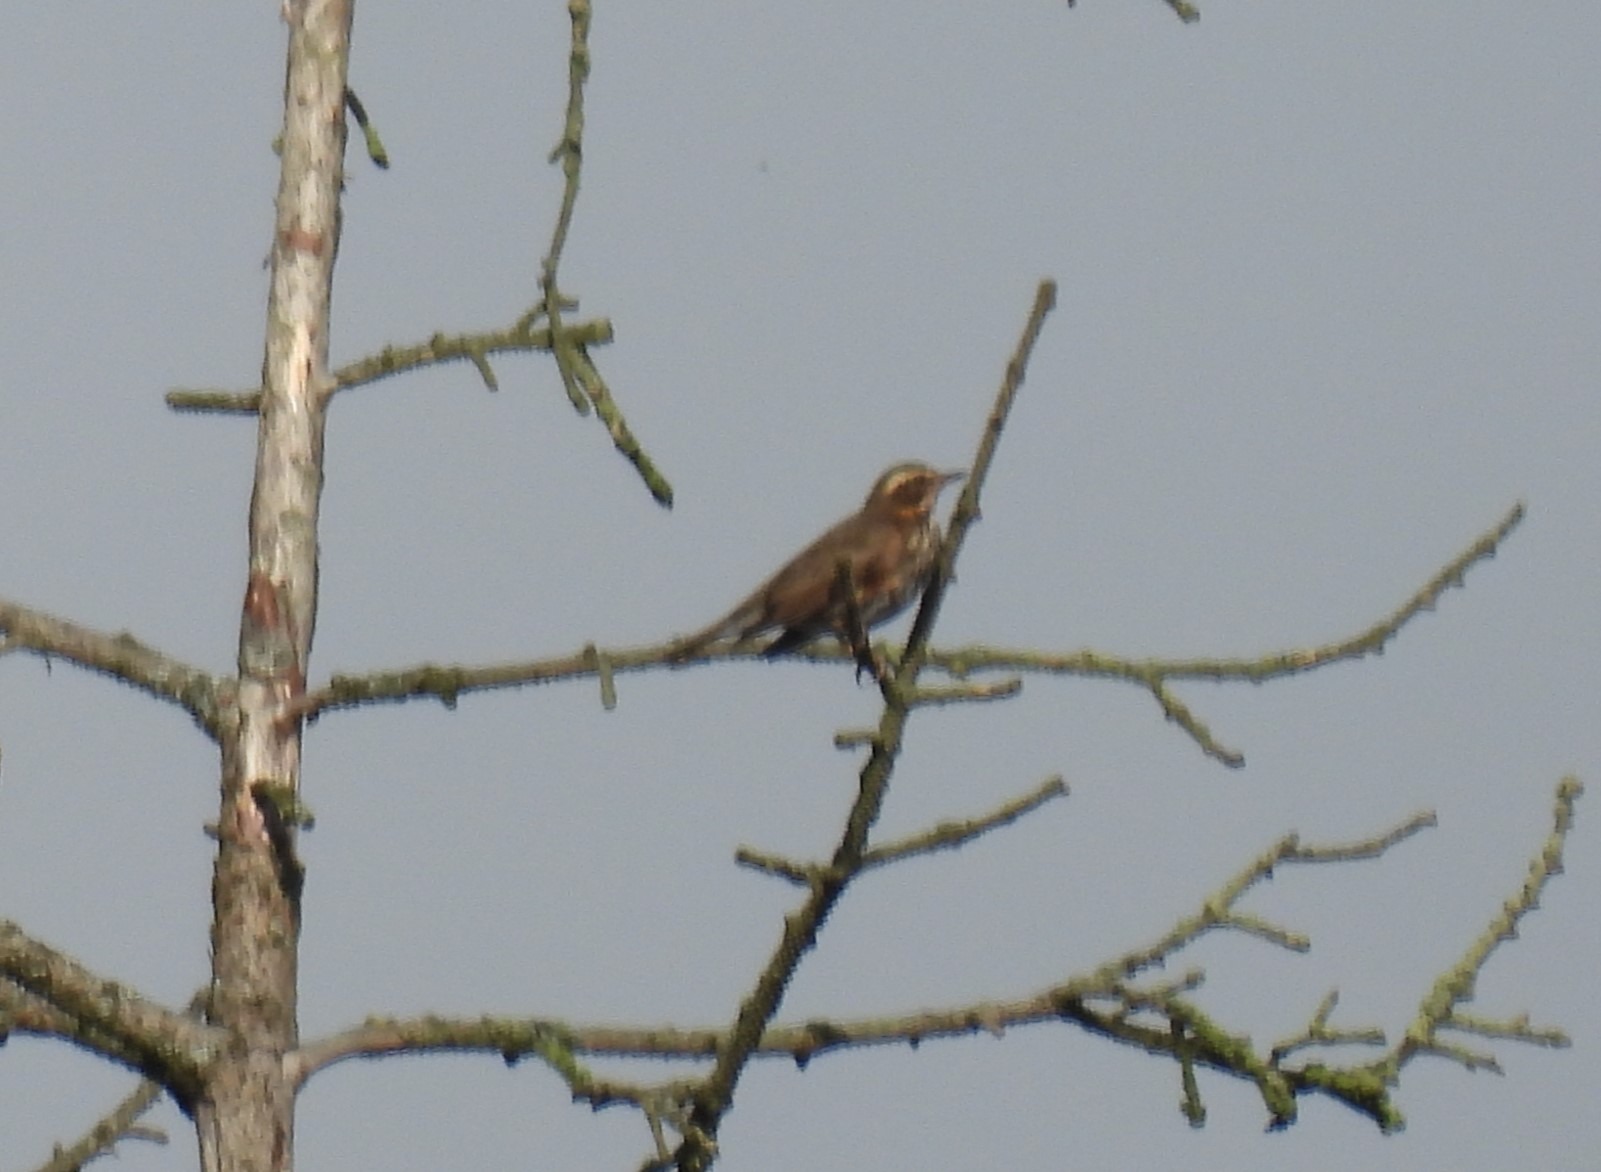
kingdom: Animalia
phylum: Chordata
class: Aves
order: Passeriformes
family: Turdidae
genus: Turdus
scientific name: Turdus iliacus
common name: Vindrossel
